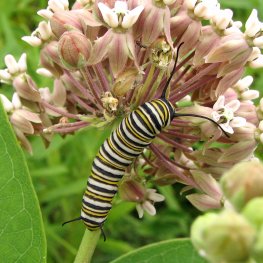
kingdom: Animalia
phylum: Arthropoda
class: Insecta
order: Lepidoptera
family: Nymphalidae
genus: Danaus
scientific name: Danaus plexippus
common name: Monarch
